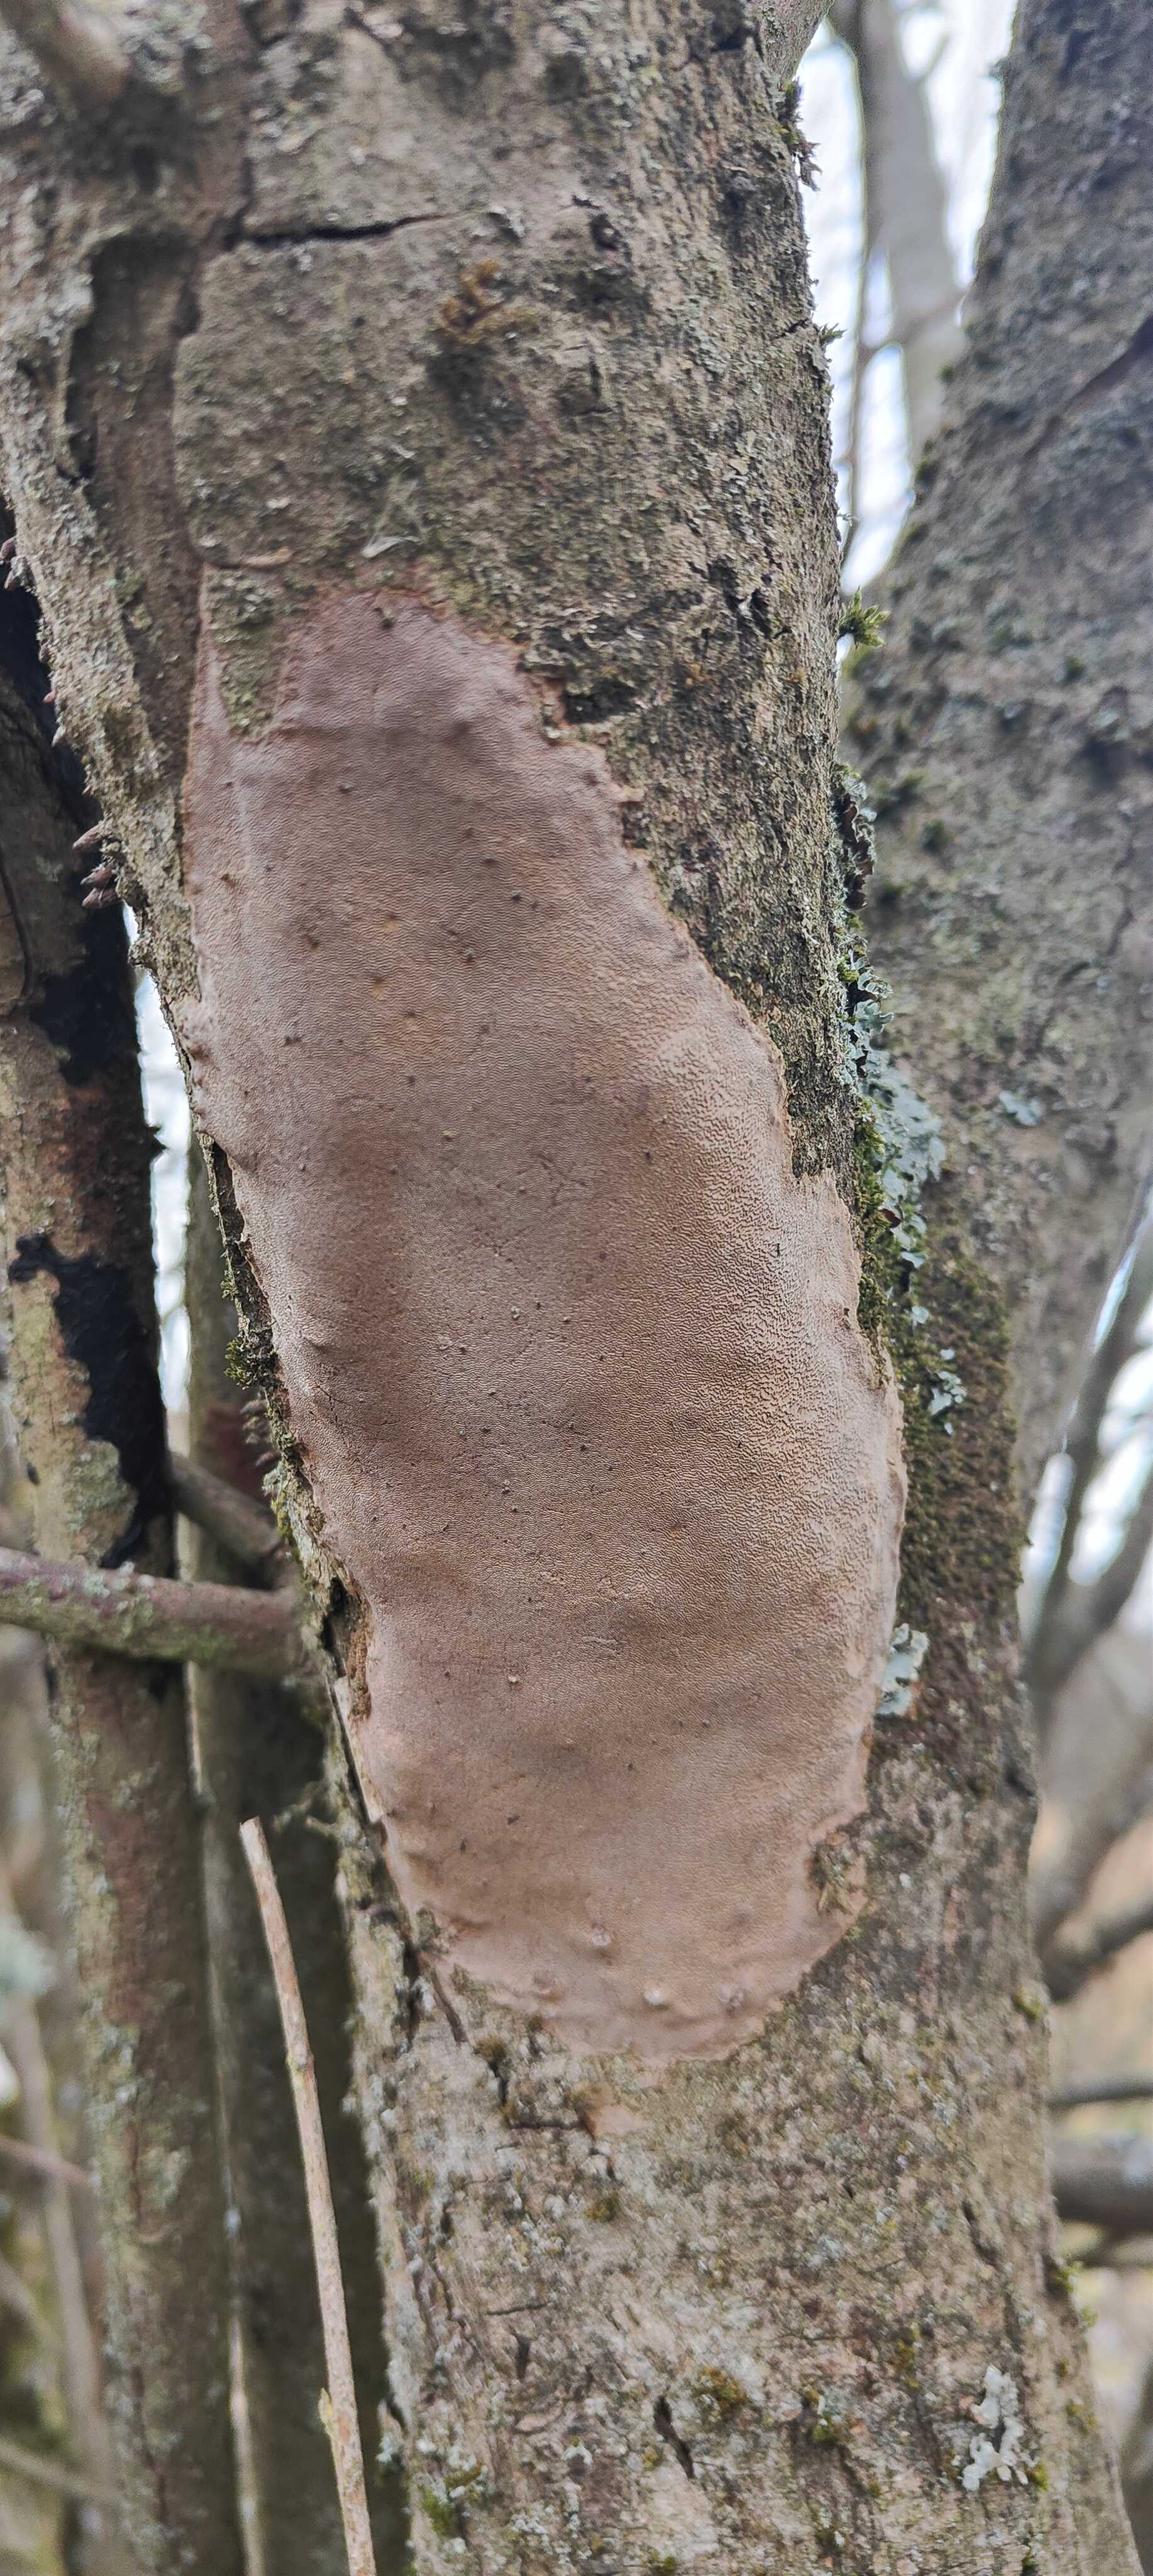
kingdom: Fungi
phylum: Basidiomycota
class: Agaricomycetes
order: Hymenochaetales
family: Hymenochaetaceae
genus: Fomitiporia
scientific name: Fomitiporia punctata
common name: pude-ildporesvamp
